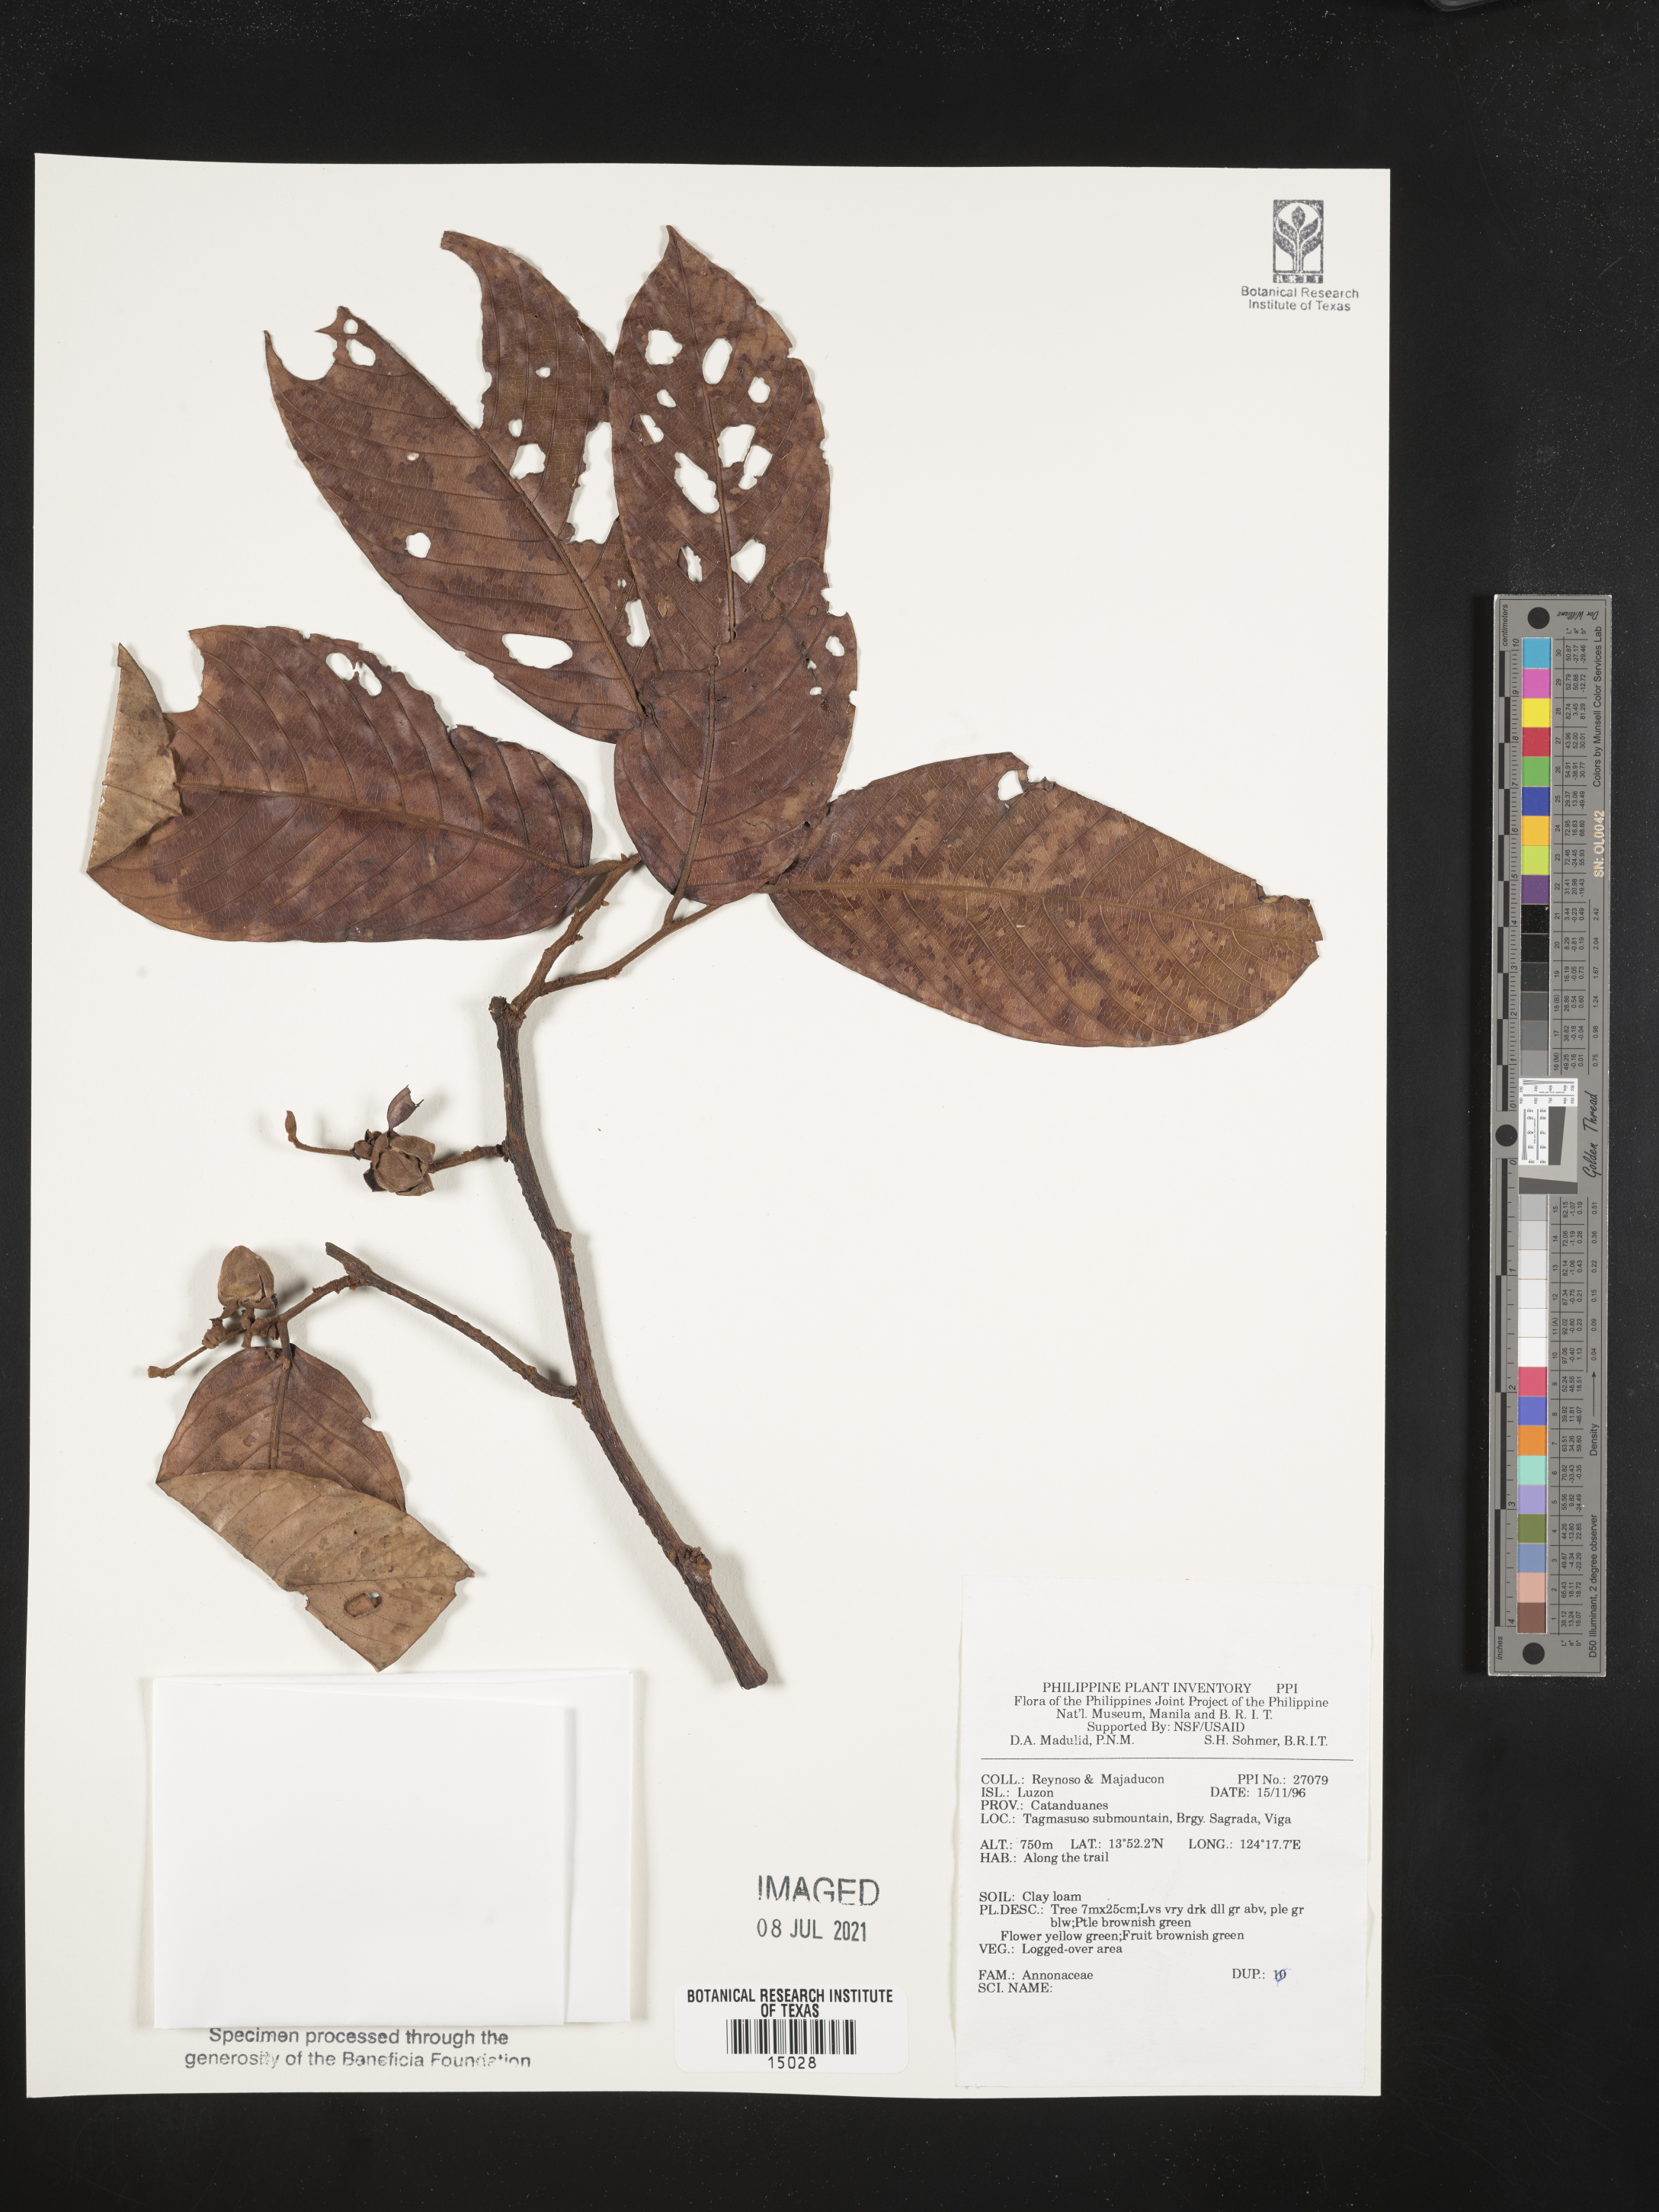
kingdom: Plantae
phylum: Tracheophyta
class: Magnoliopsida
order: Magnoliales
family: Annonaceae
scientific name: Annonaceae
